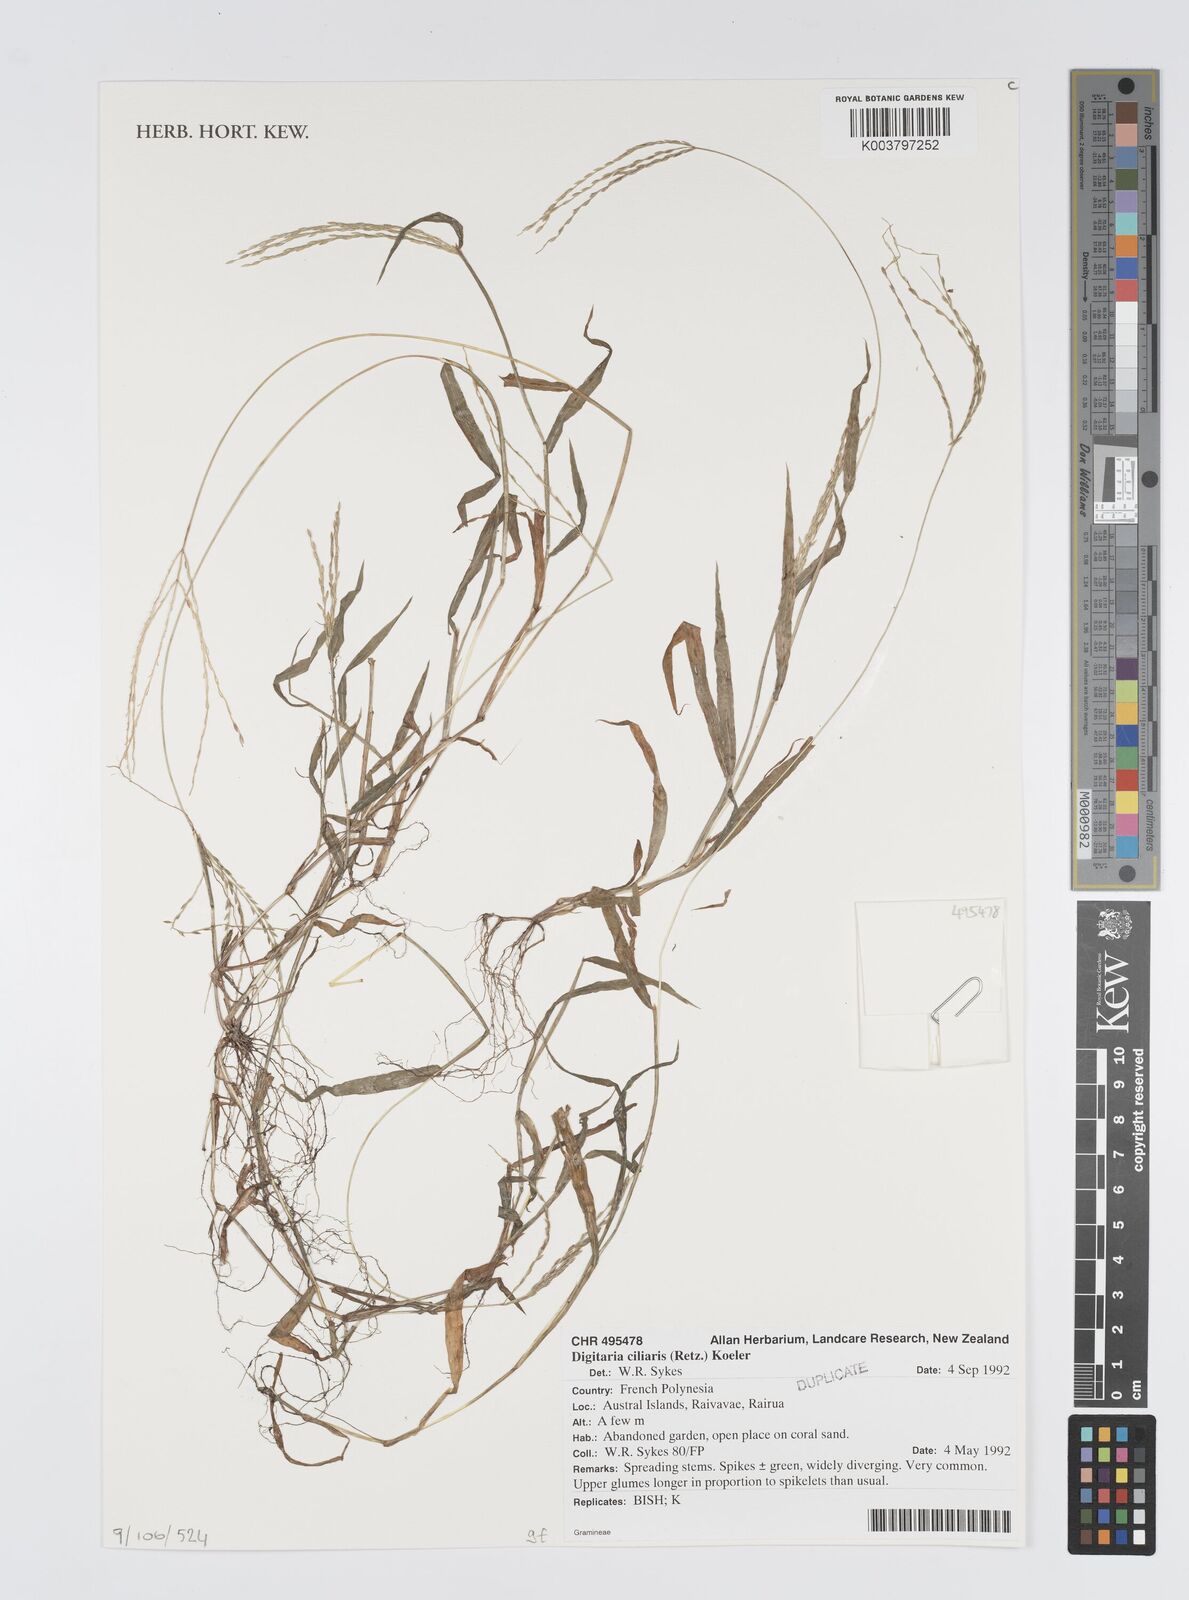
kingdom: Plantae
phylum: Tracheophyta
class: Liliopsida
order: Poales
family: Poaceae
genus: Digitaria
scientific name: Digitaria ciliaris
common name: Tropical finger-grass
